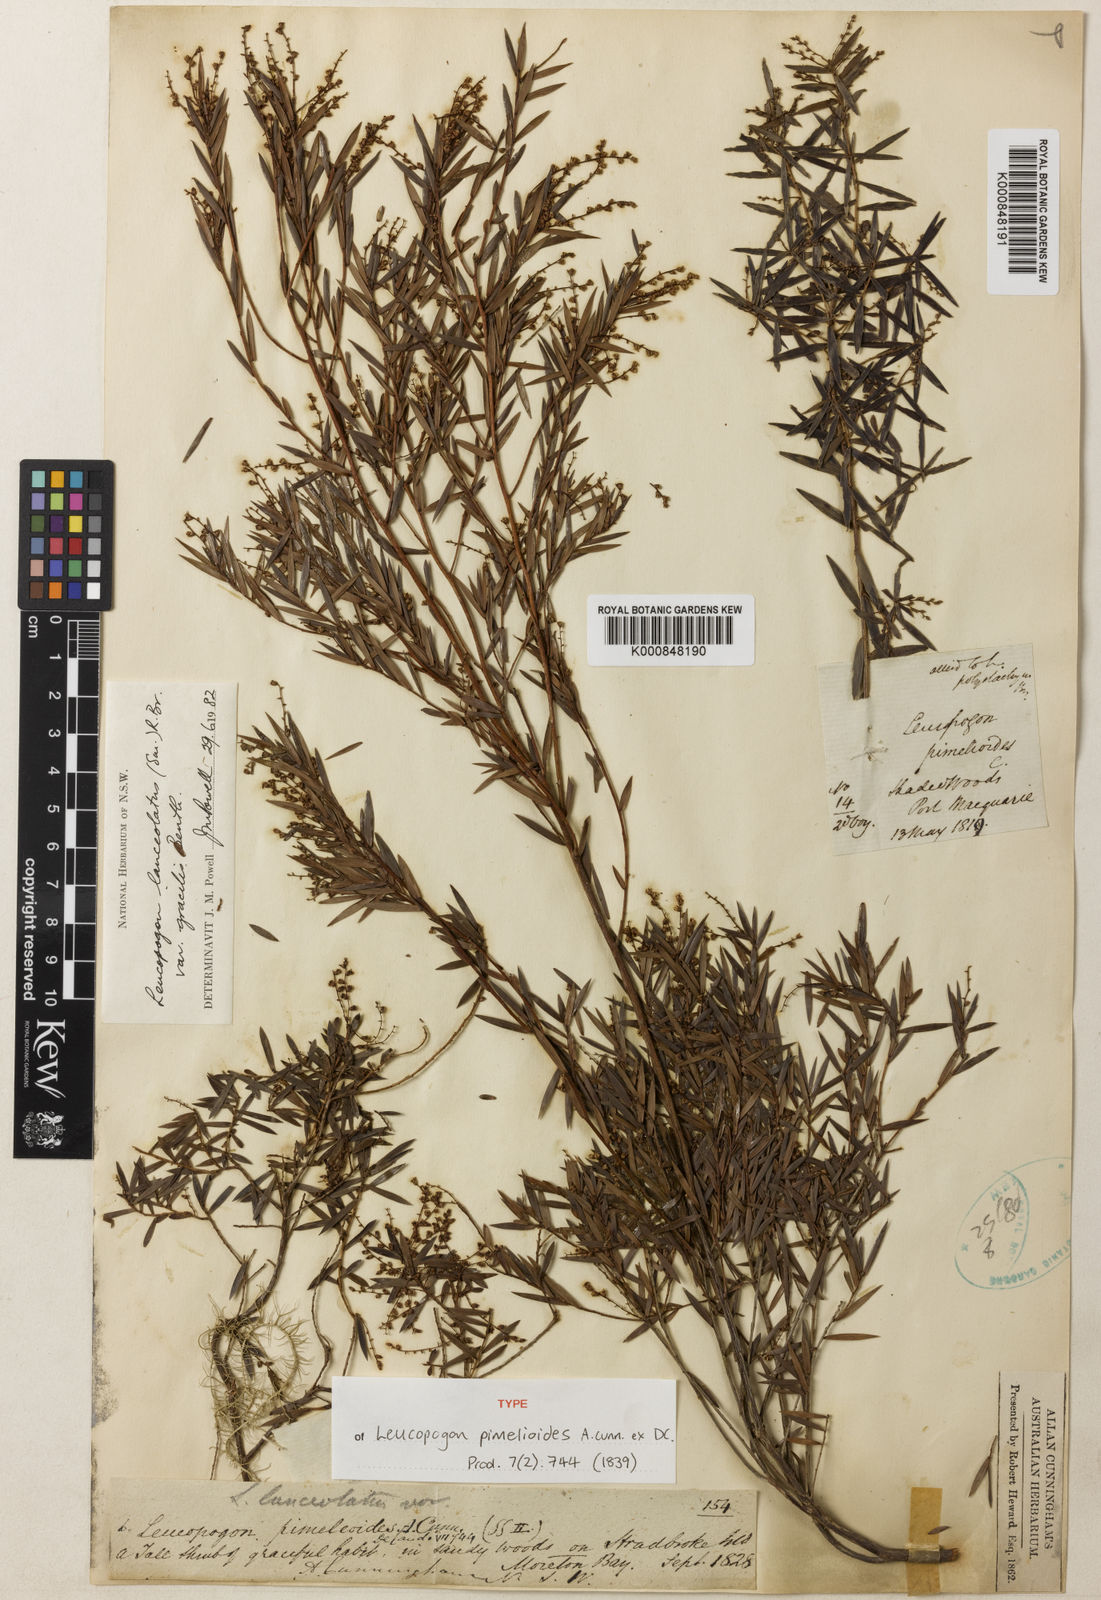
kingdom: Plantae
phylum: Tracheophyta
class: Magnoliopsida
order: Ericales
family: Ericaceae
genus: Leucopogon
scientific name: Leucopogon pimeleoides
